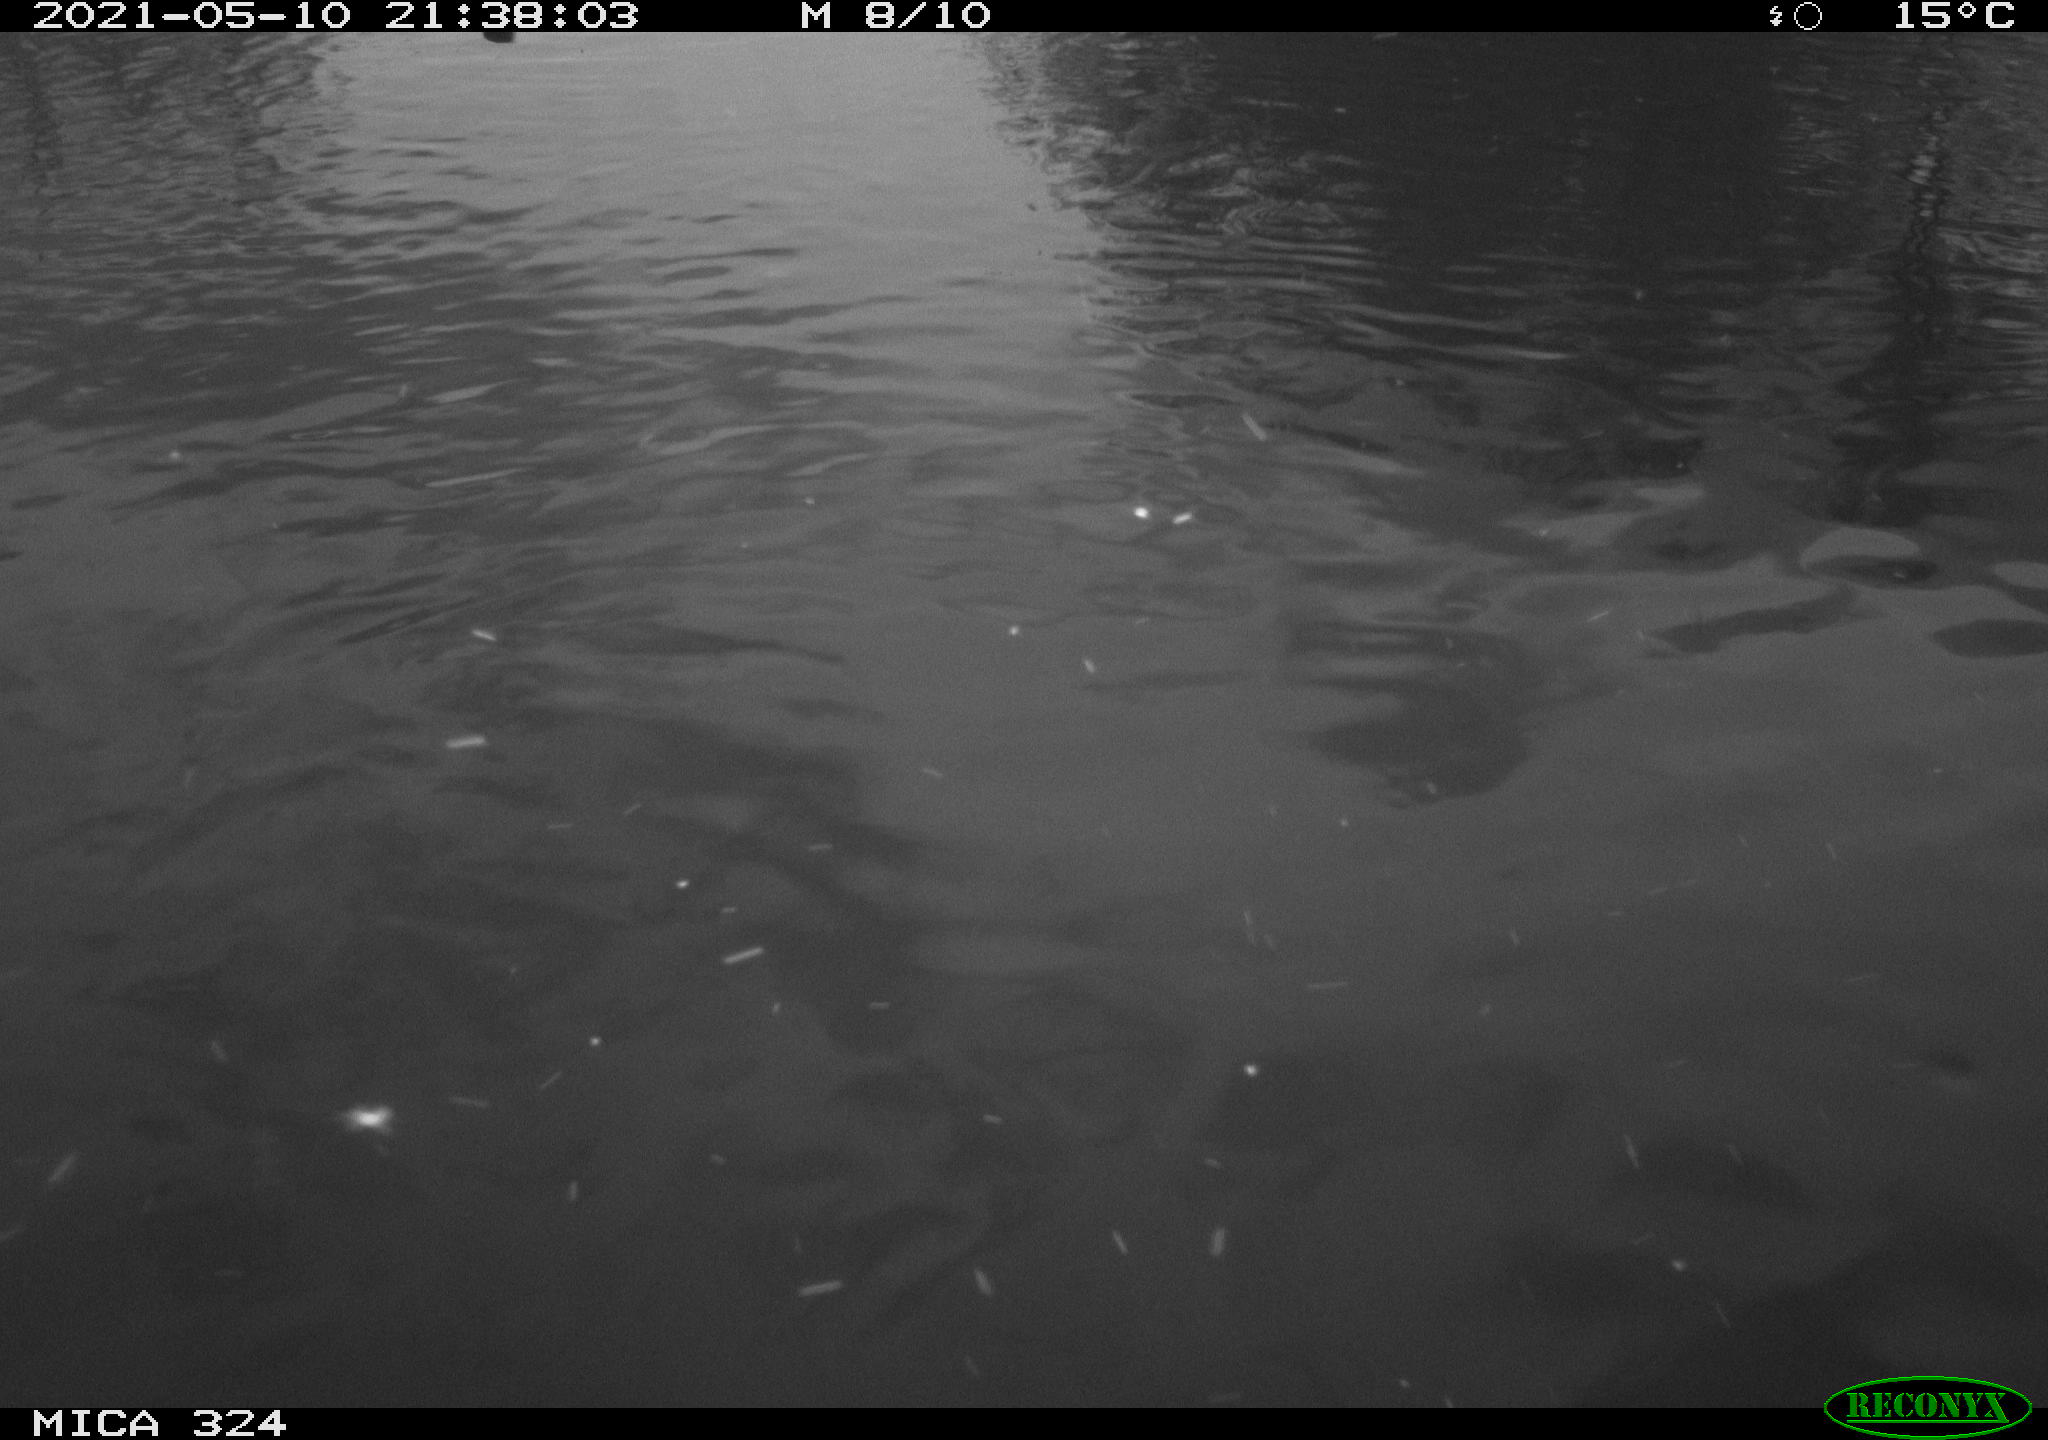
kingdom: Animalia
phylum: Chordata
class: Aves
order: Gruiformes
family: Rallidae
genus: Gallinula
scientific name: Gallinula chloropus
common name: Common moorhen
